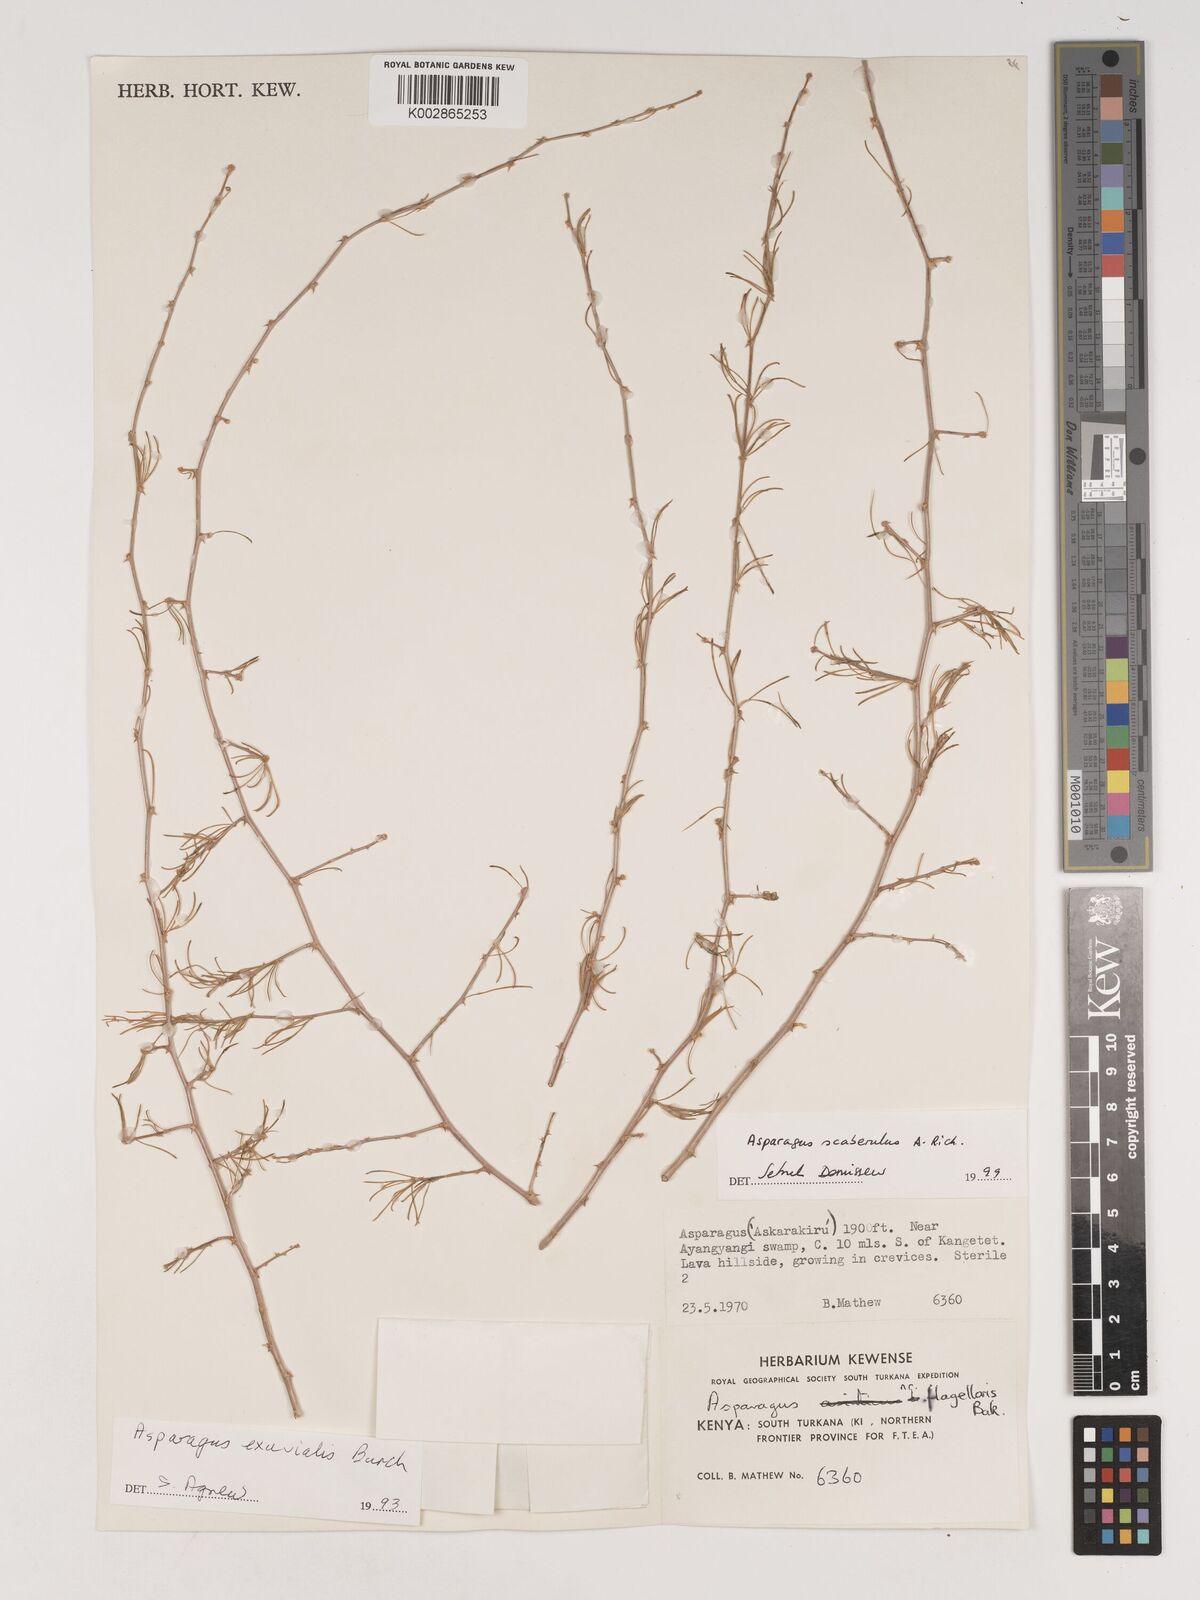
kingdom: Plantae
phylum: Tracheophyta
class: Liliopsida
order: Asparagales
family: Asparagaceae
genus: Asparagus
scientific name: Asparagus scaberulus
